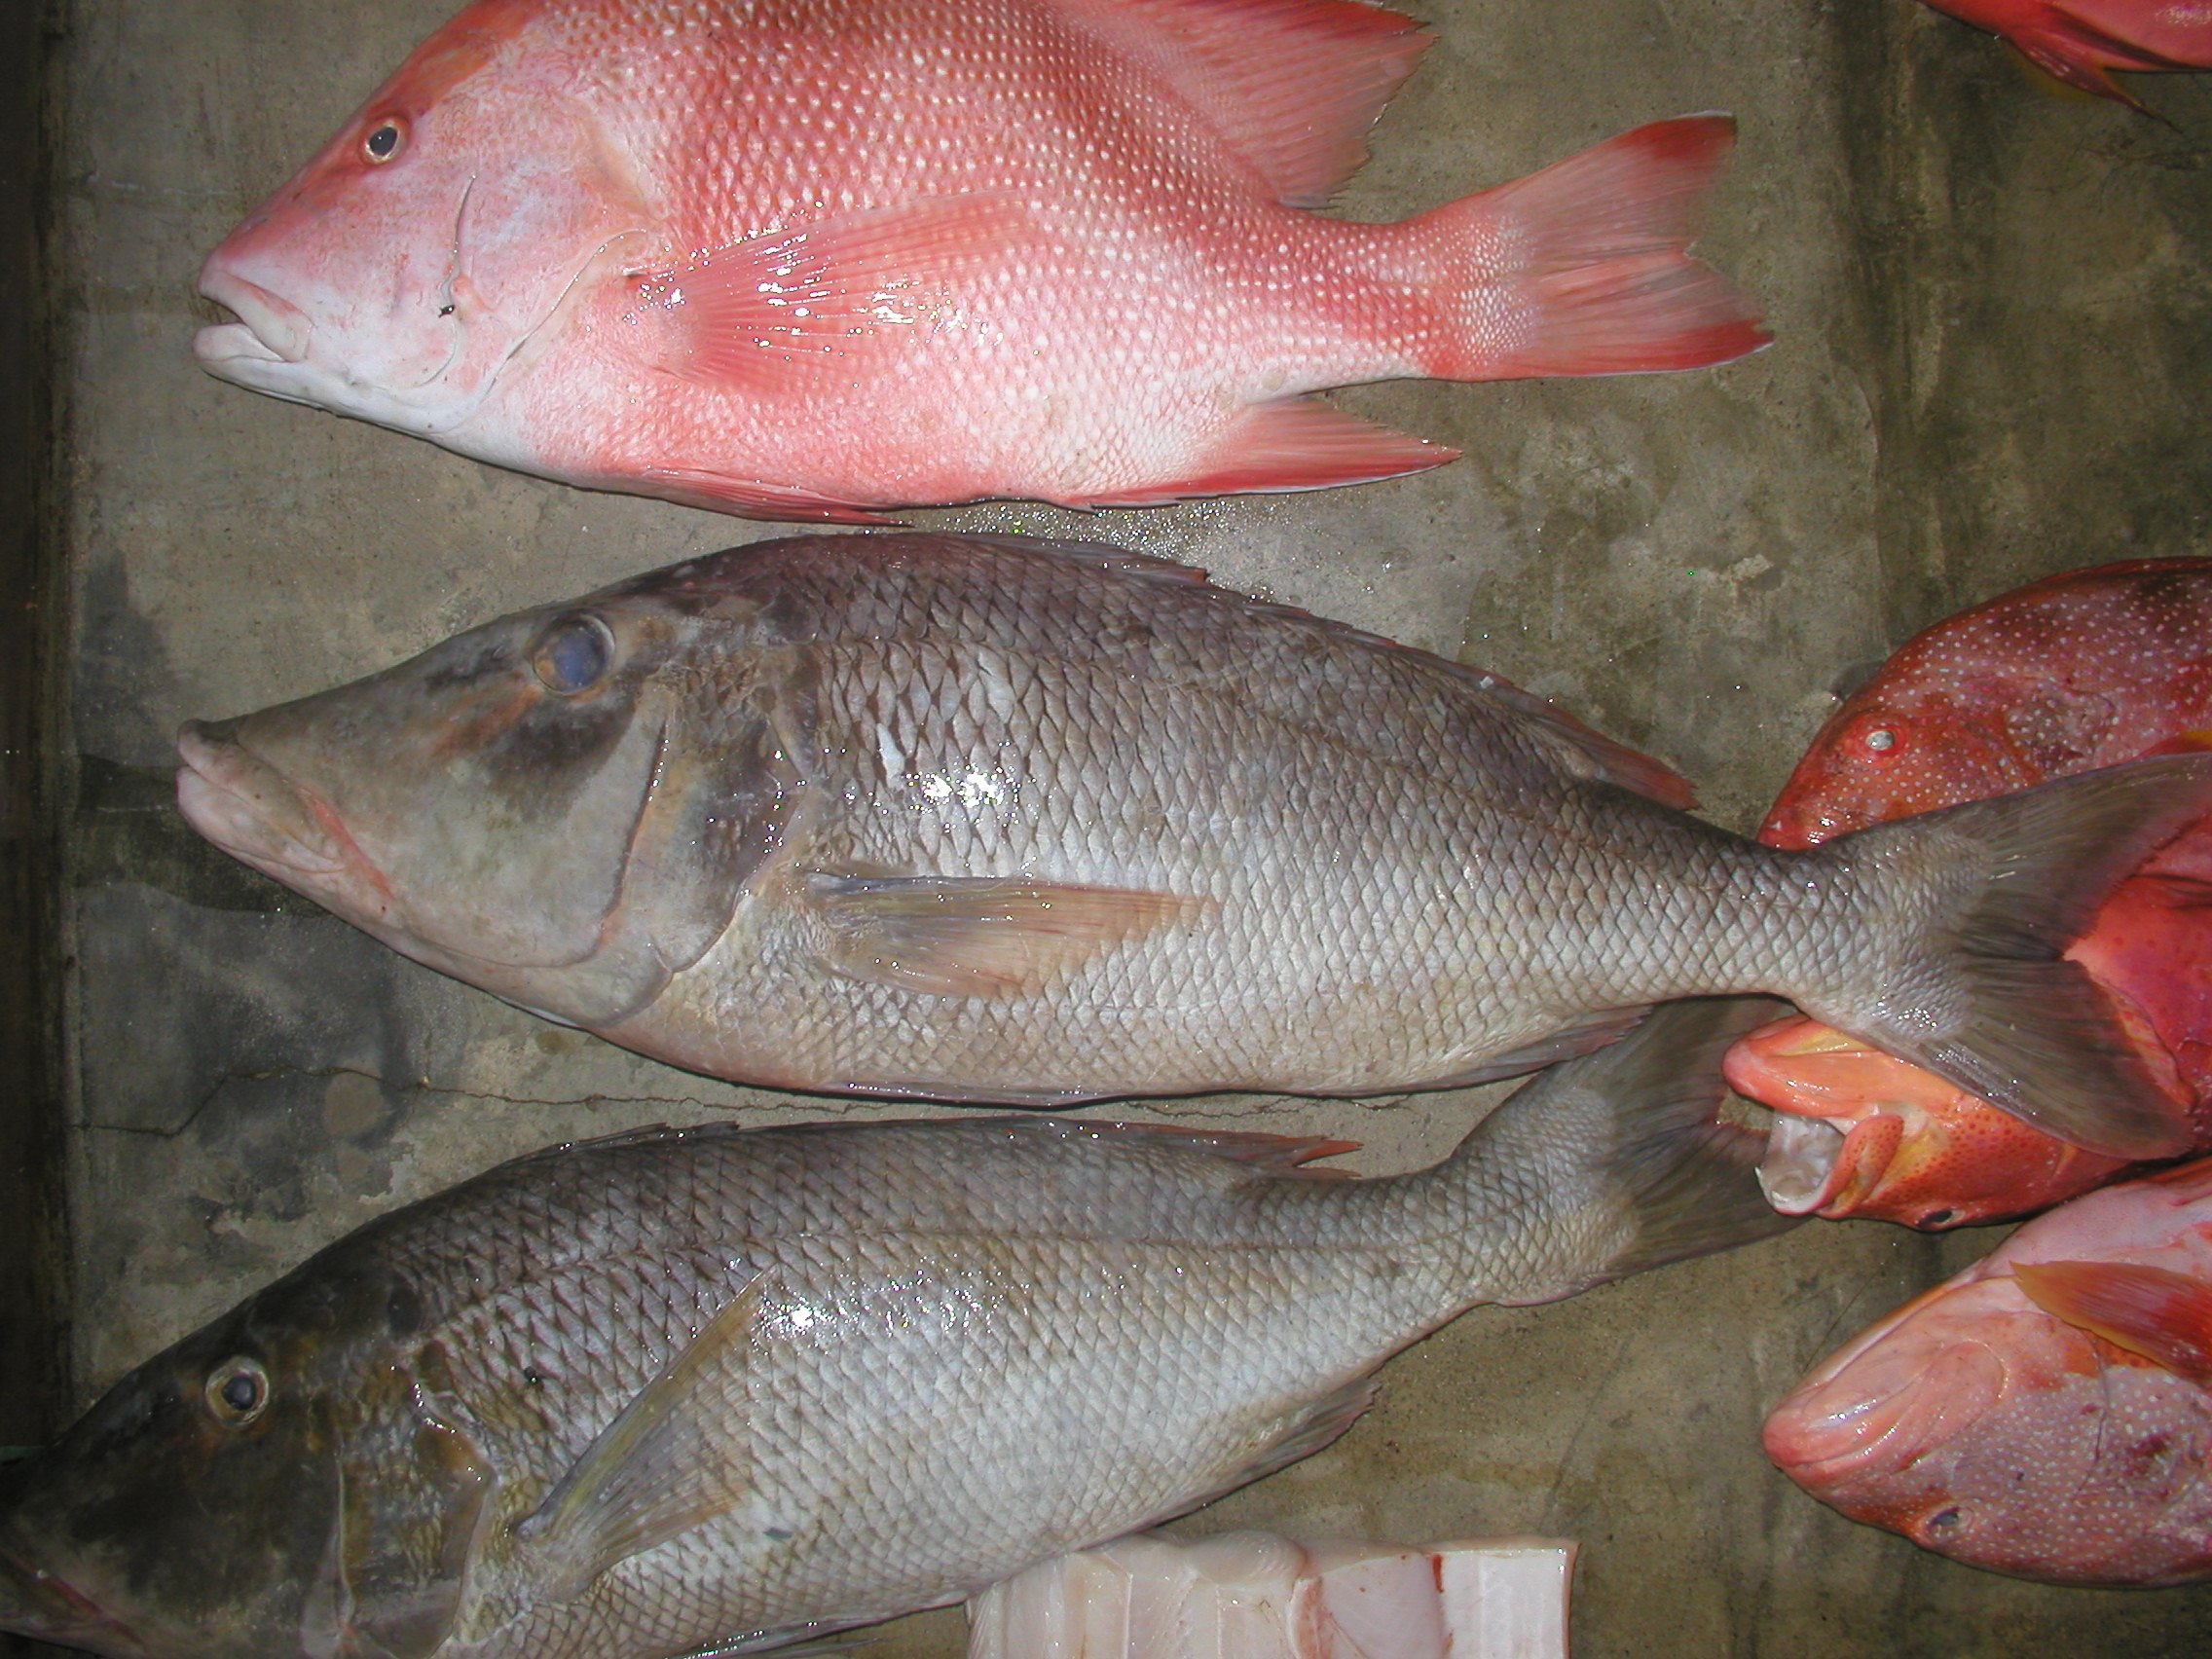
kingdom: Animalia
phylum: Chordata
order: Perciformes
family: Lethrinidae
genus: Lethrinus
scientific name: Lethrinus microdon
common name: Smalltooth emperor
